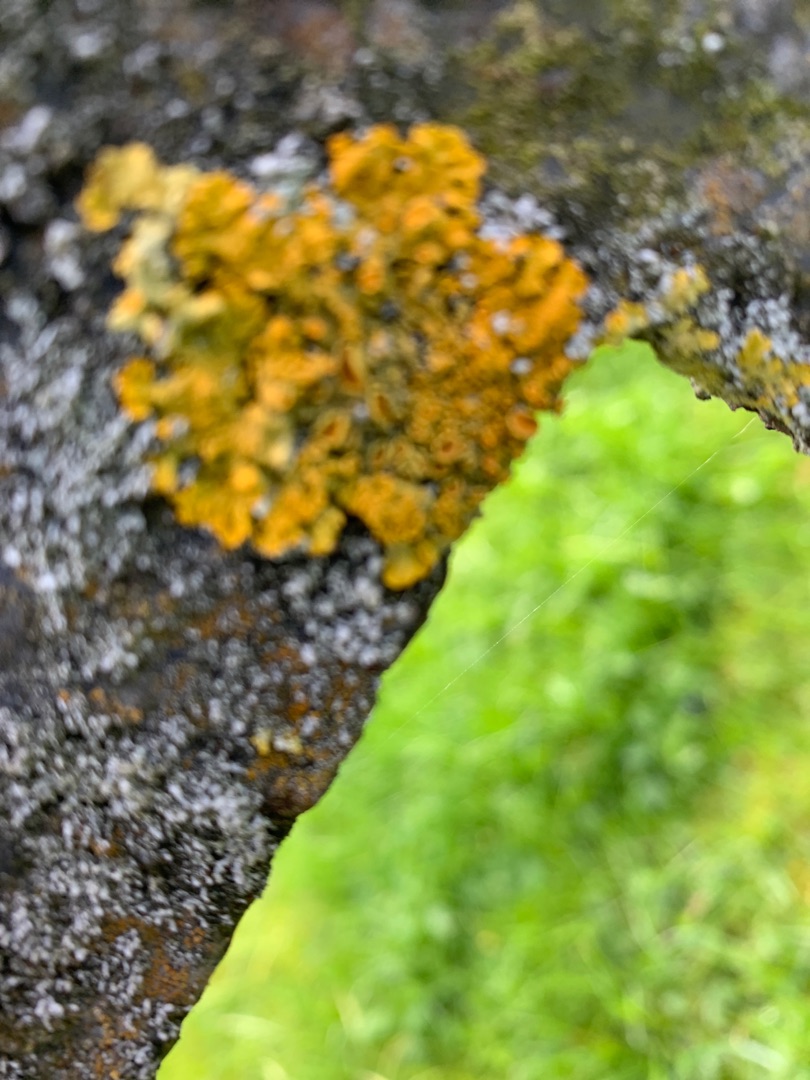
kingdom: Fungi
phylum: Ascomycota
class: Lecanoromycetes
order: Teloschistales
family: Teloschistaceae
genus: Xanthoria
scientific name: Xanthoria parietina
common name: Almindelig væggelav
